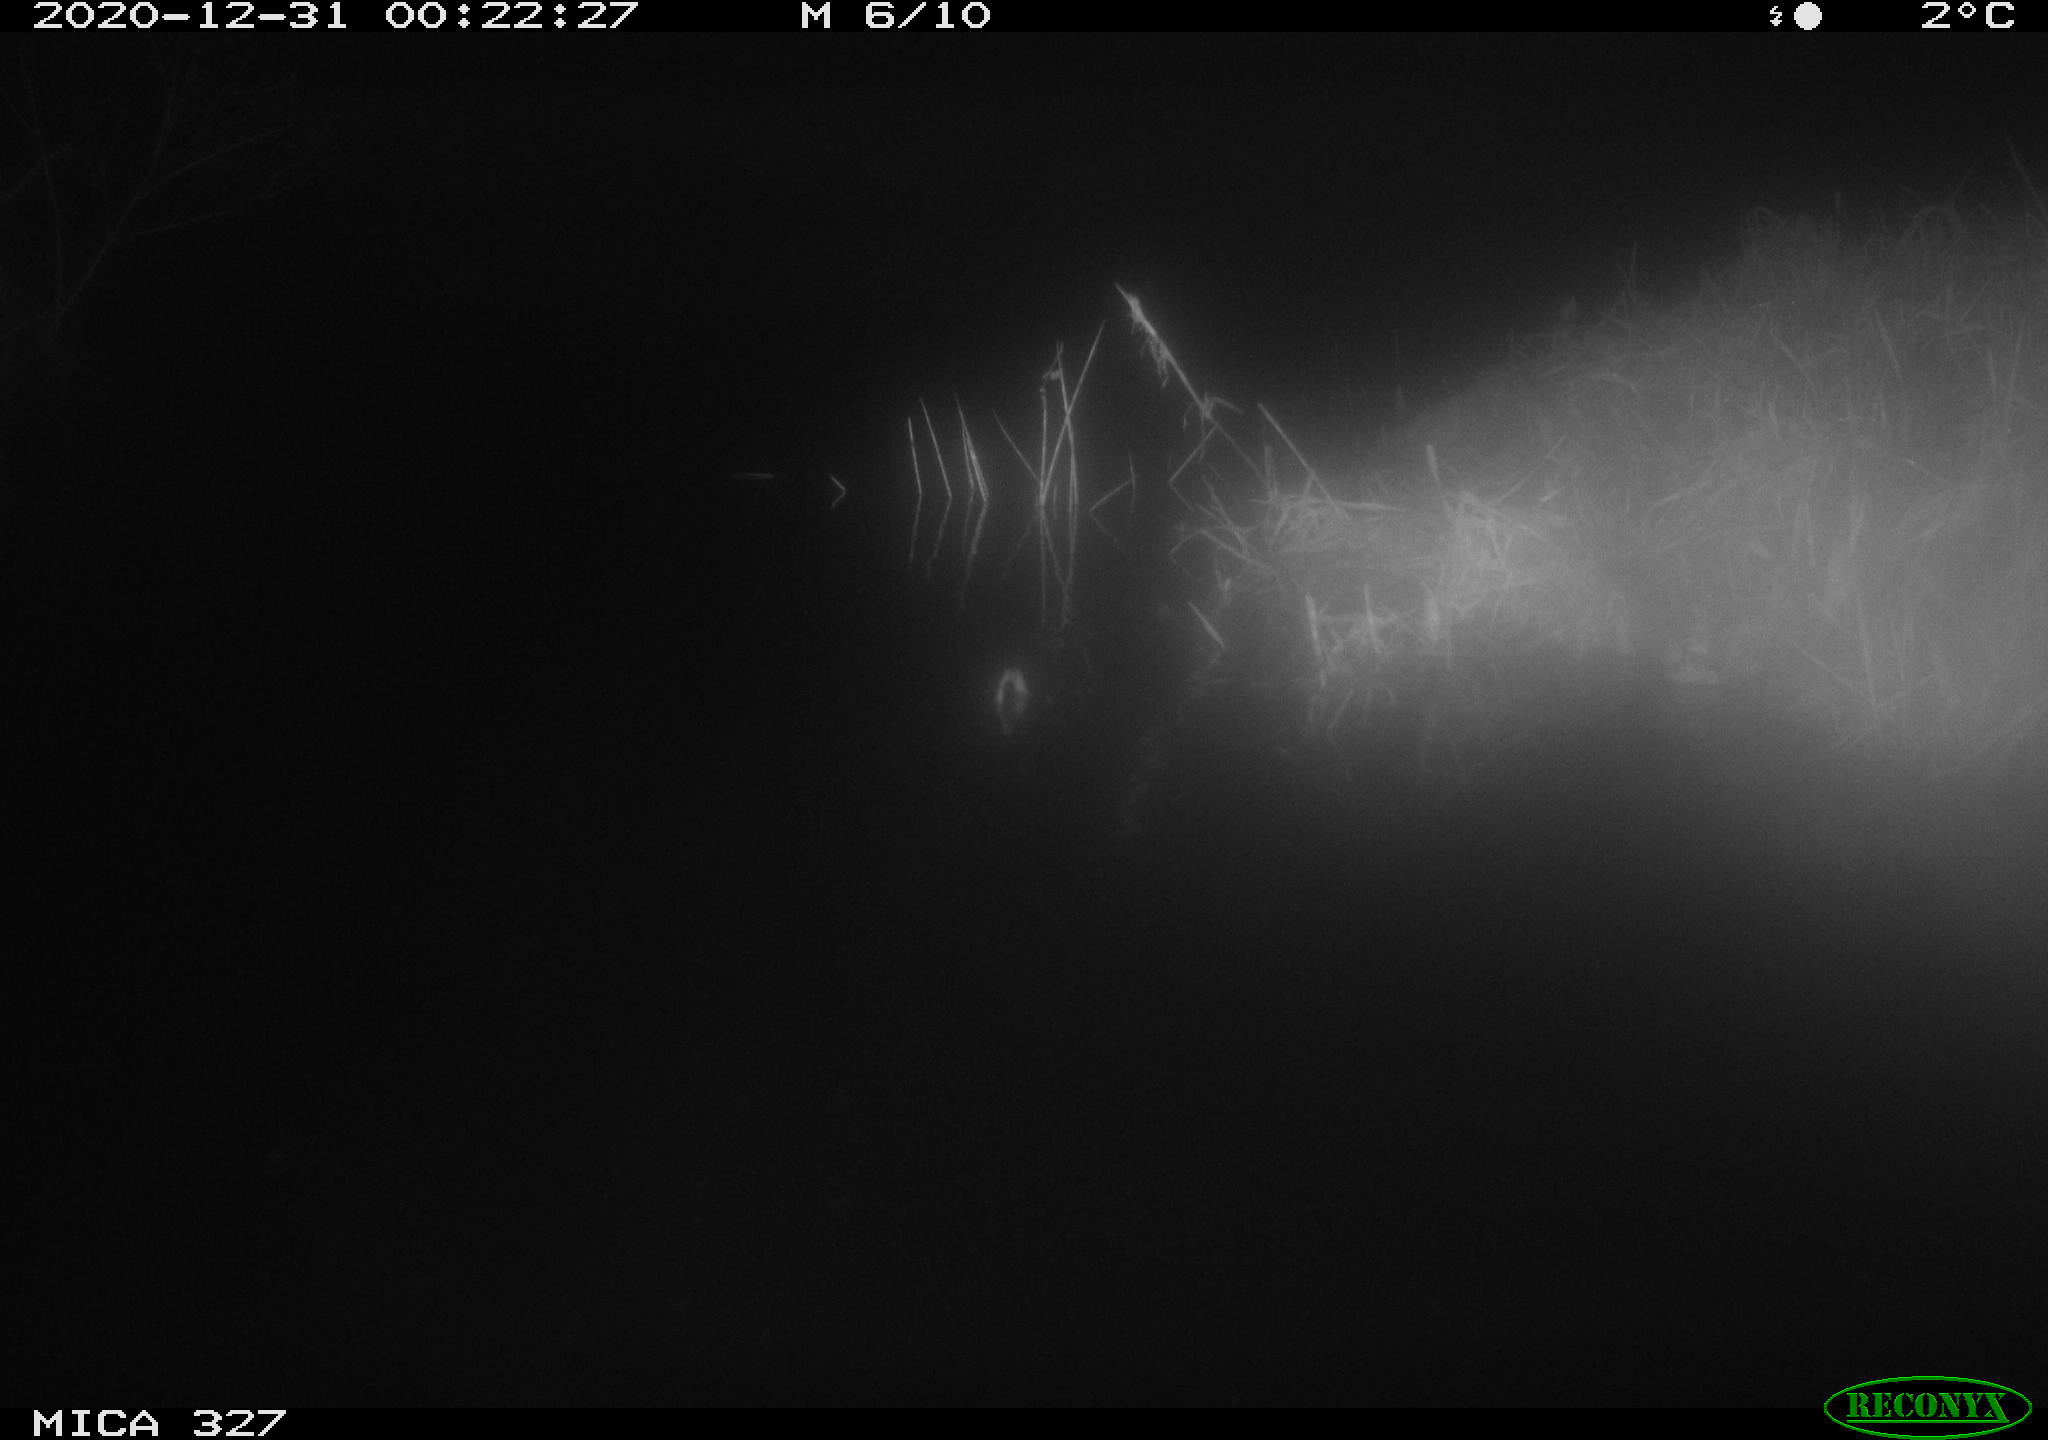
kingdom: Animalia
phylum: Chordata
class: Mammalia
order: Rodentia
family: Cricetidae
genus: Ondatra
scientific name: Ondatra zibethicus
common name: Muskrat
